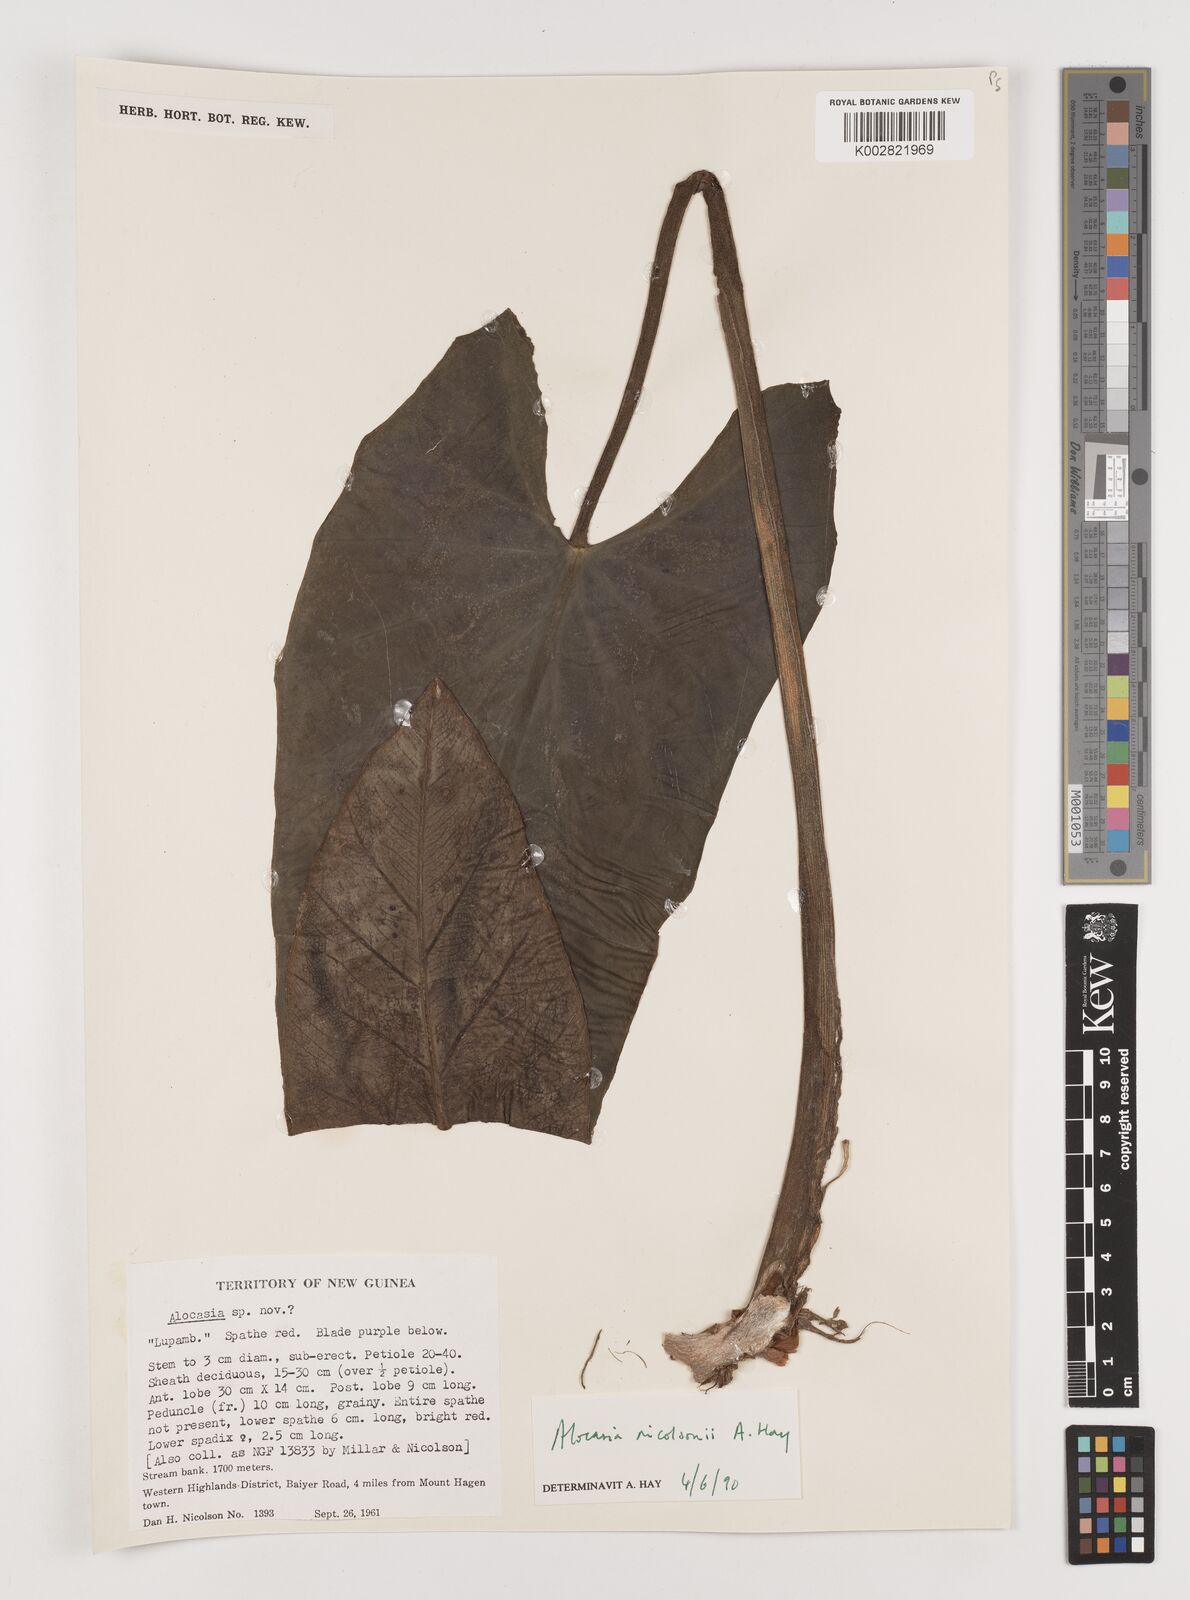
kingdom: Plantae
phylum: Tracheophyta
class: Liliopsida
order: Alismatales
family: Araceae
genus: Alocasia
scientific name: Alocasia nicolsonii
